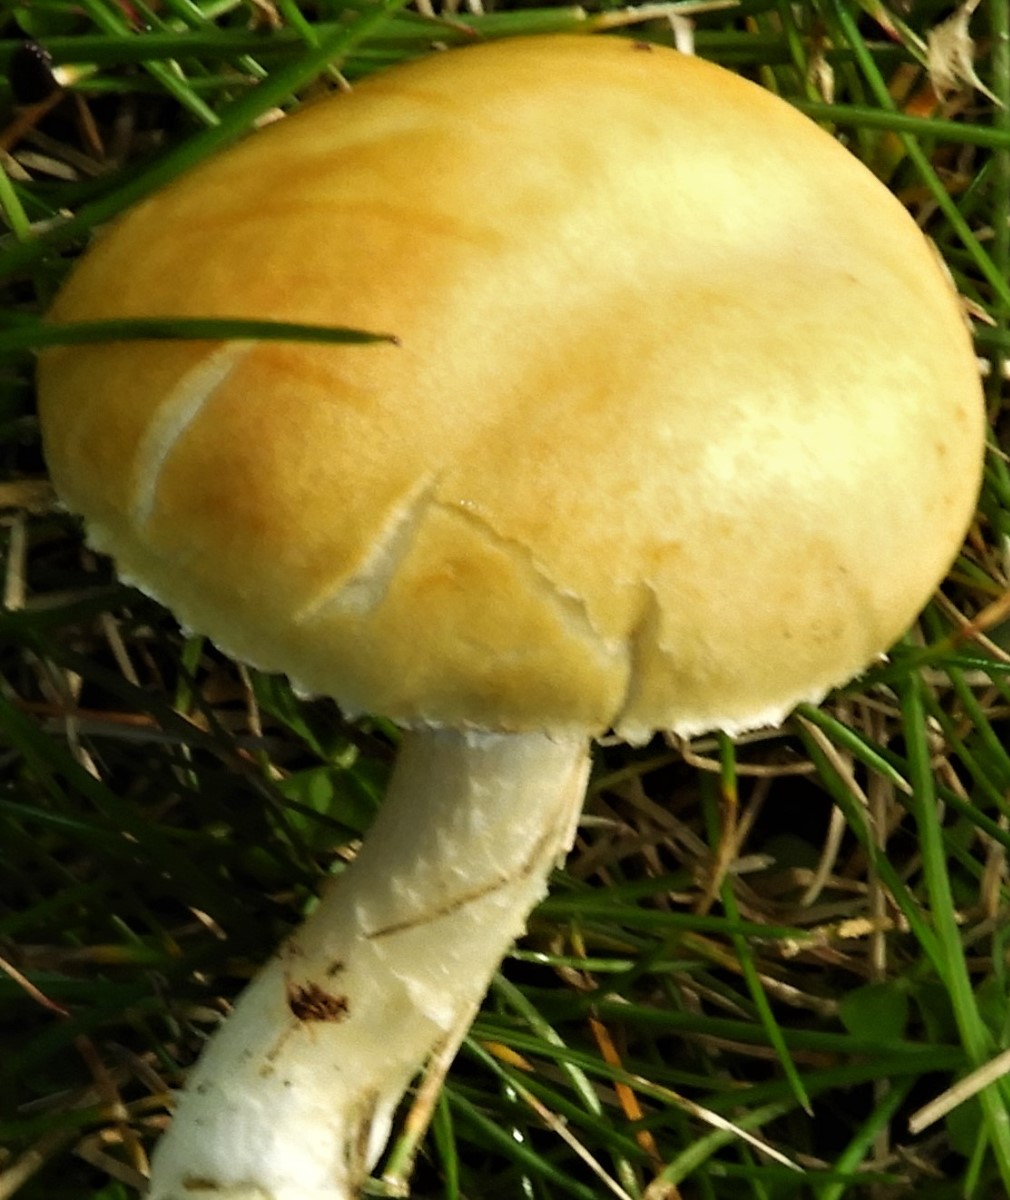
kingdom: Fungi
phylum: Basidiomycota
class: Agaricomycetes
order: Agaricales
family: Hymenogastraceae
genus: Psilocybe
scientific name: Psilocybe coronilla
